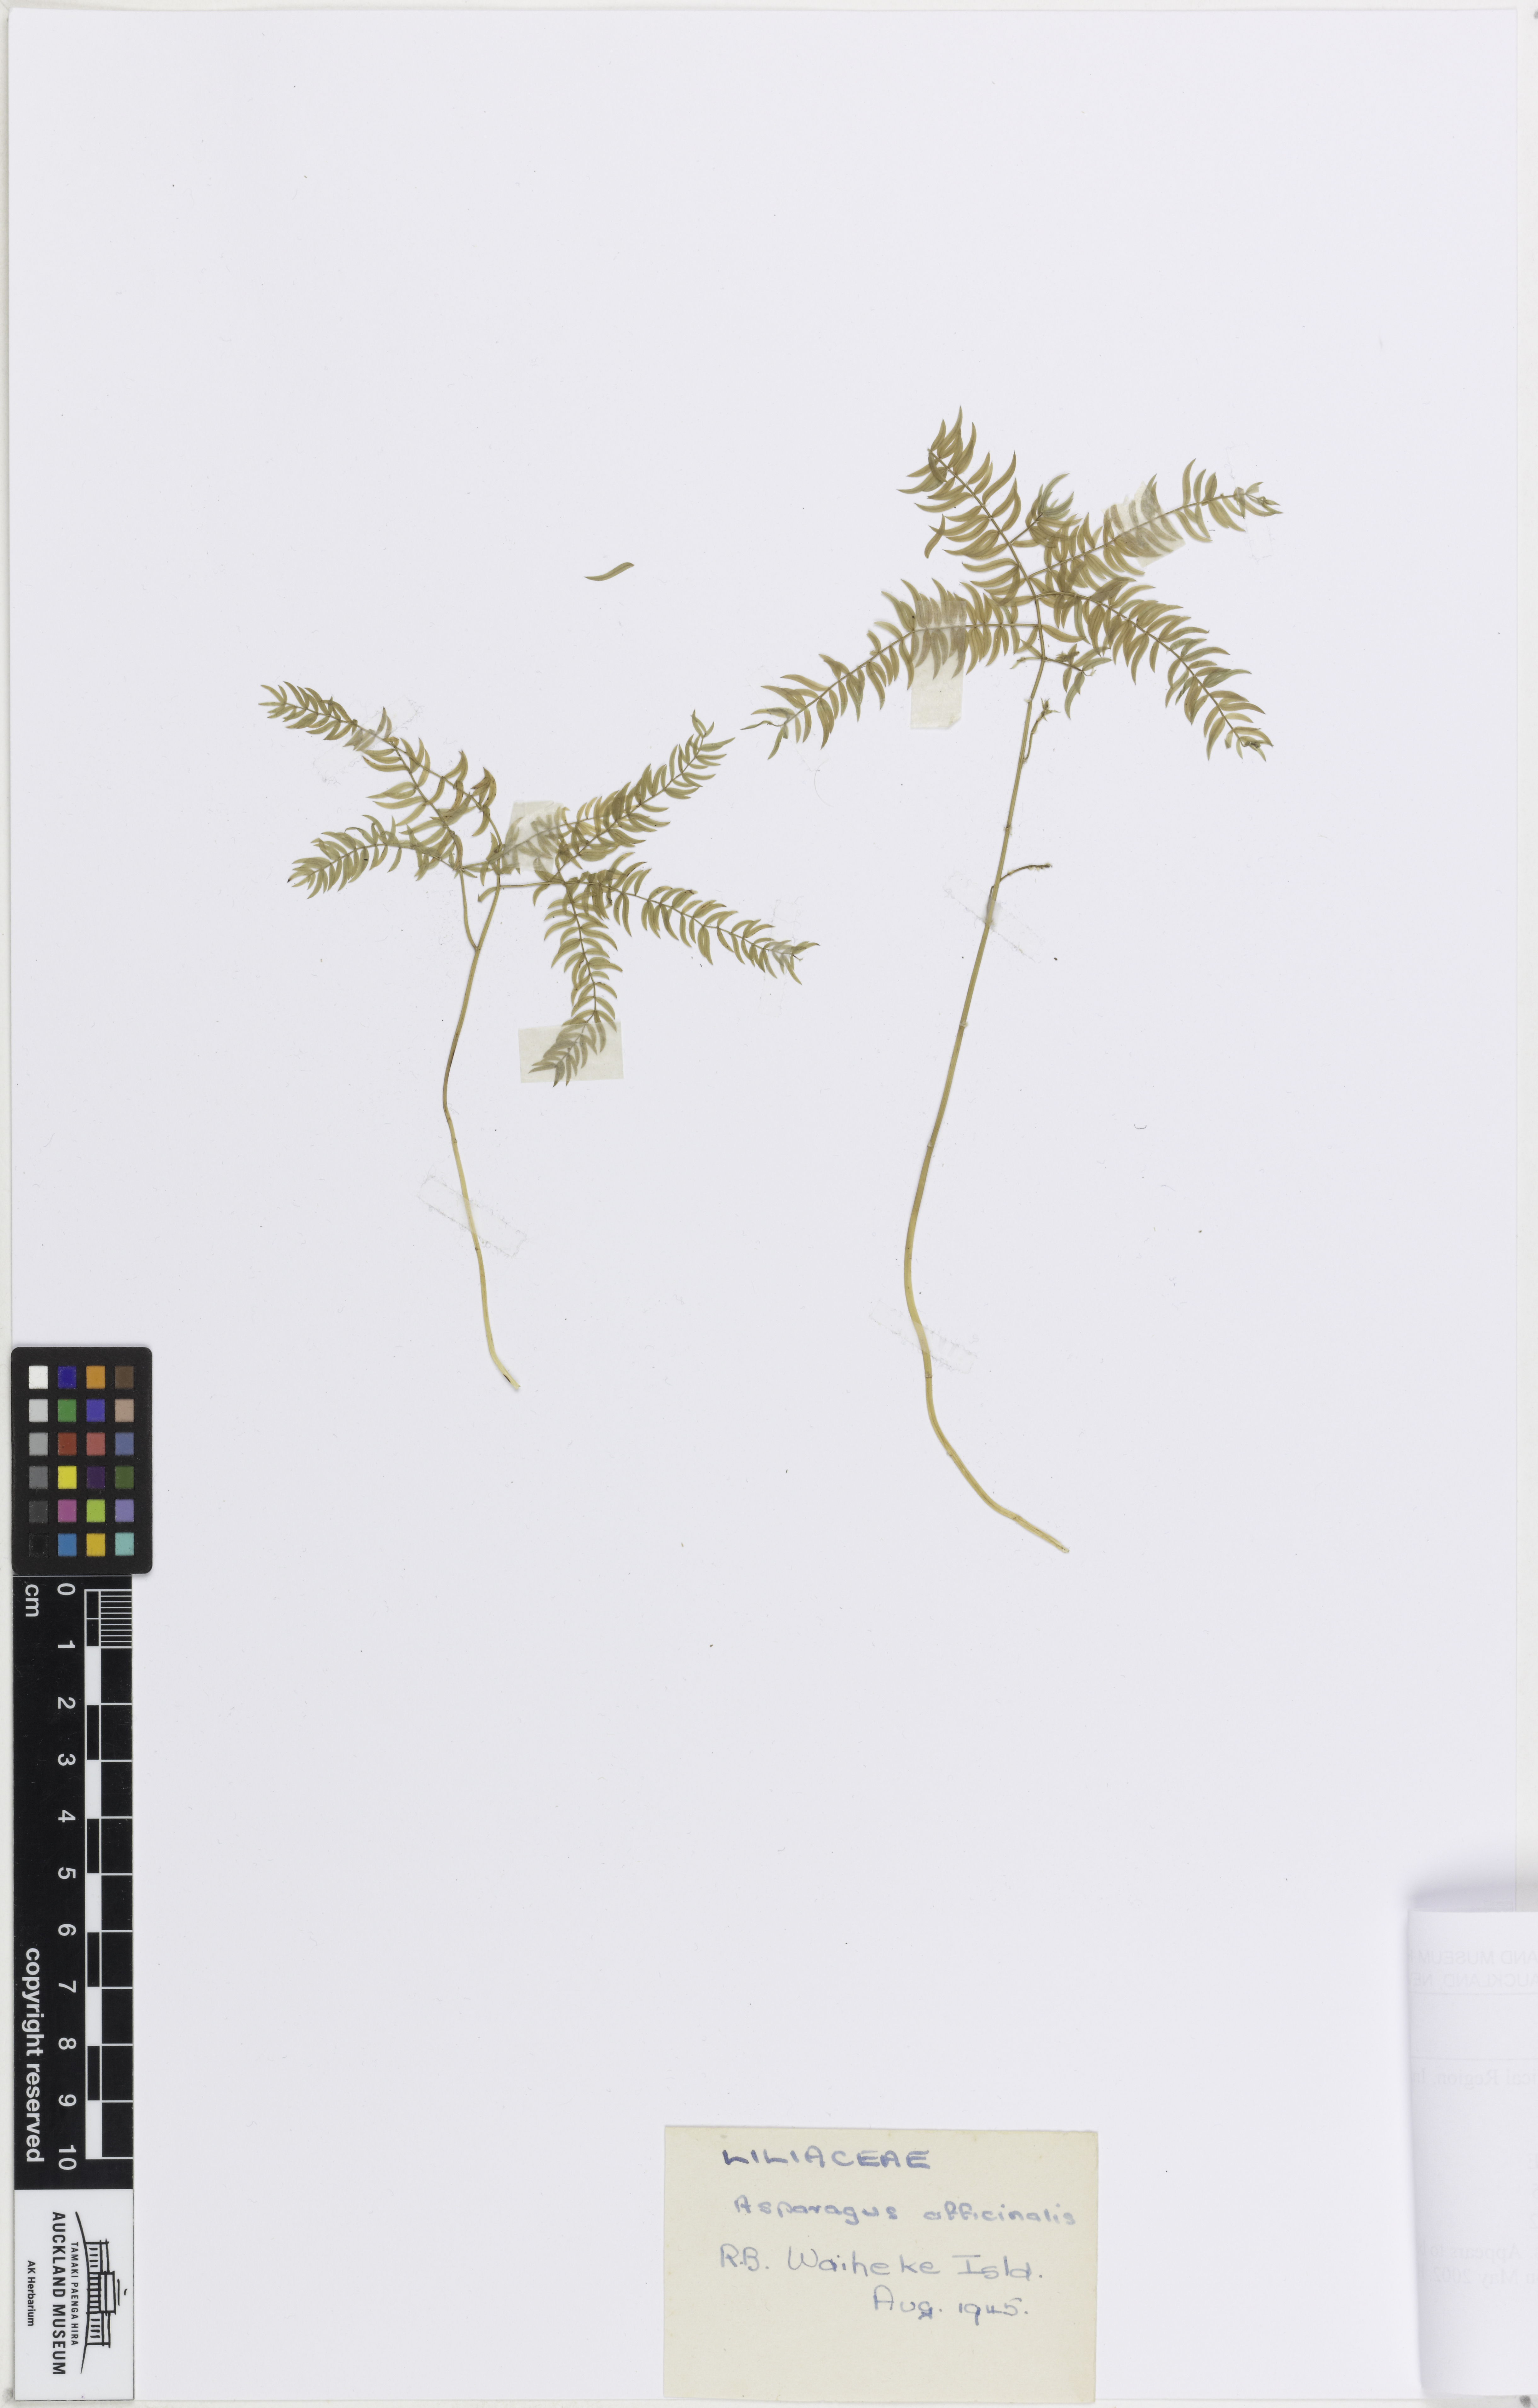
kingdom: Plantae
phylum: Tracheophyta
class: Liliopsida
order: Asparagales
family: Asparagaceae
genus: Asparagus
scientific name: Asparagus scandens
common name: Asparagus-fern
